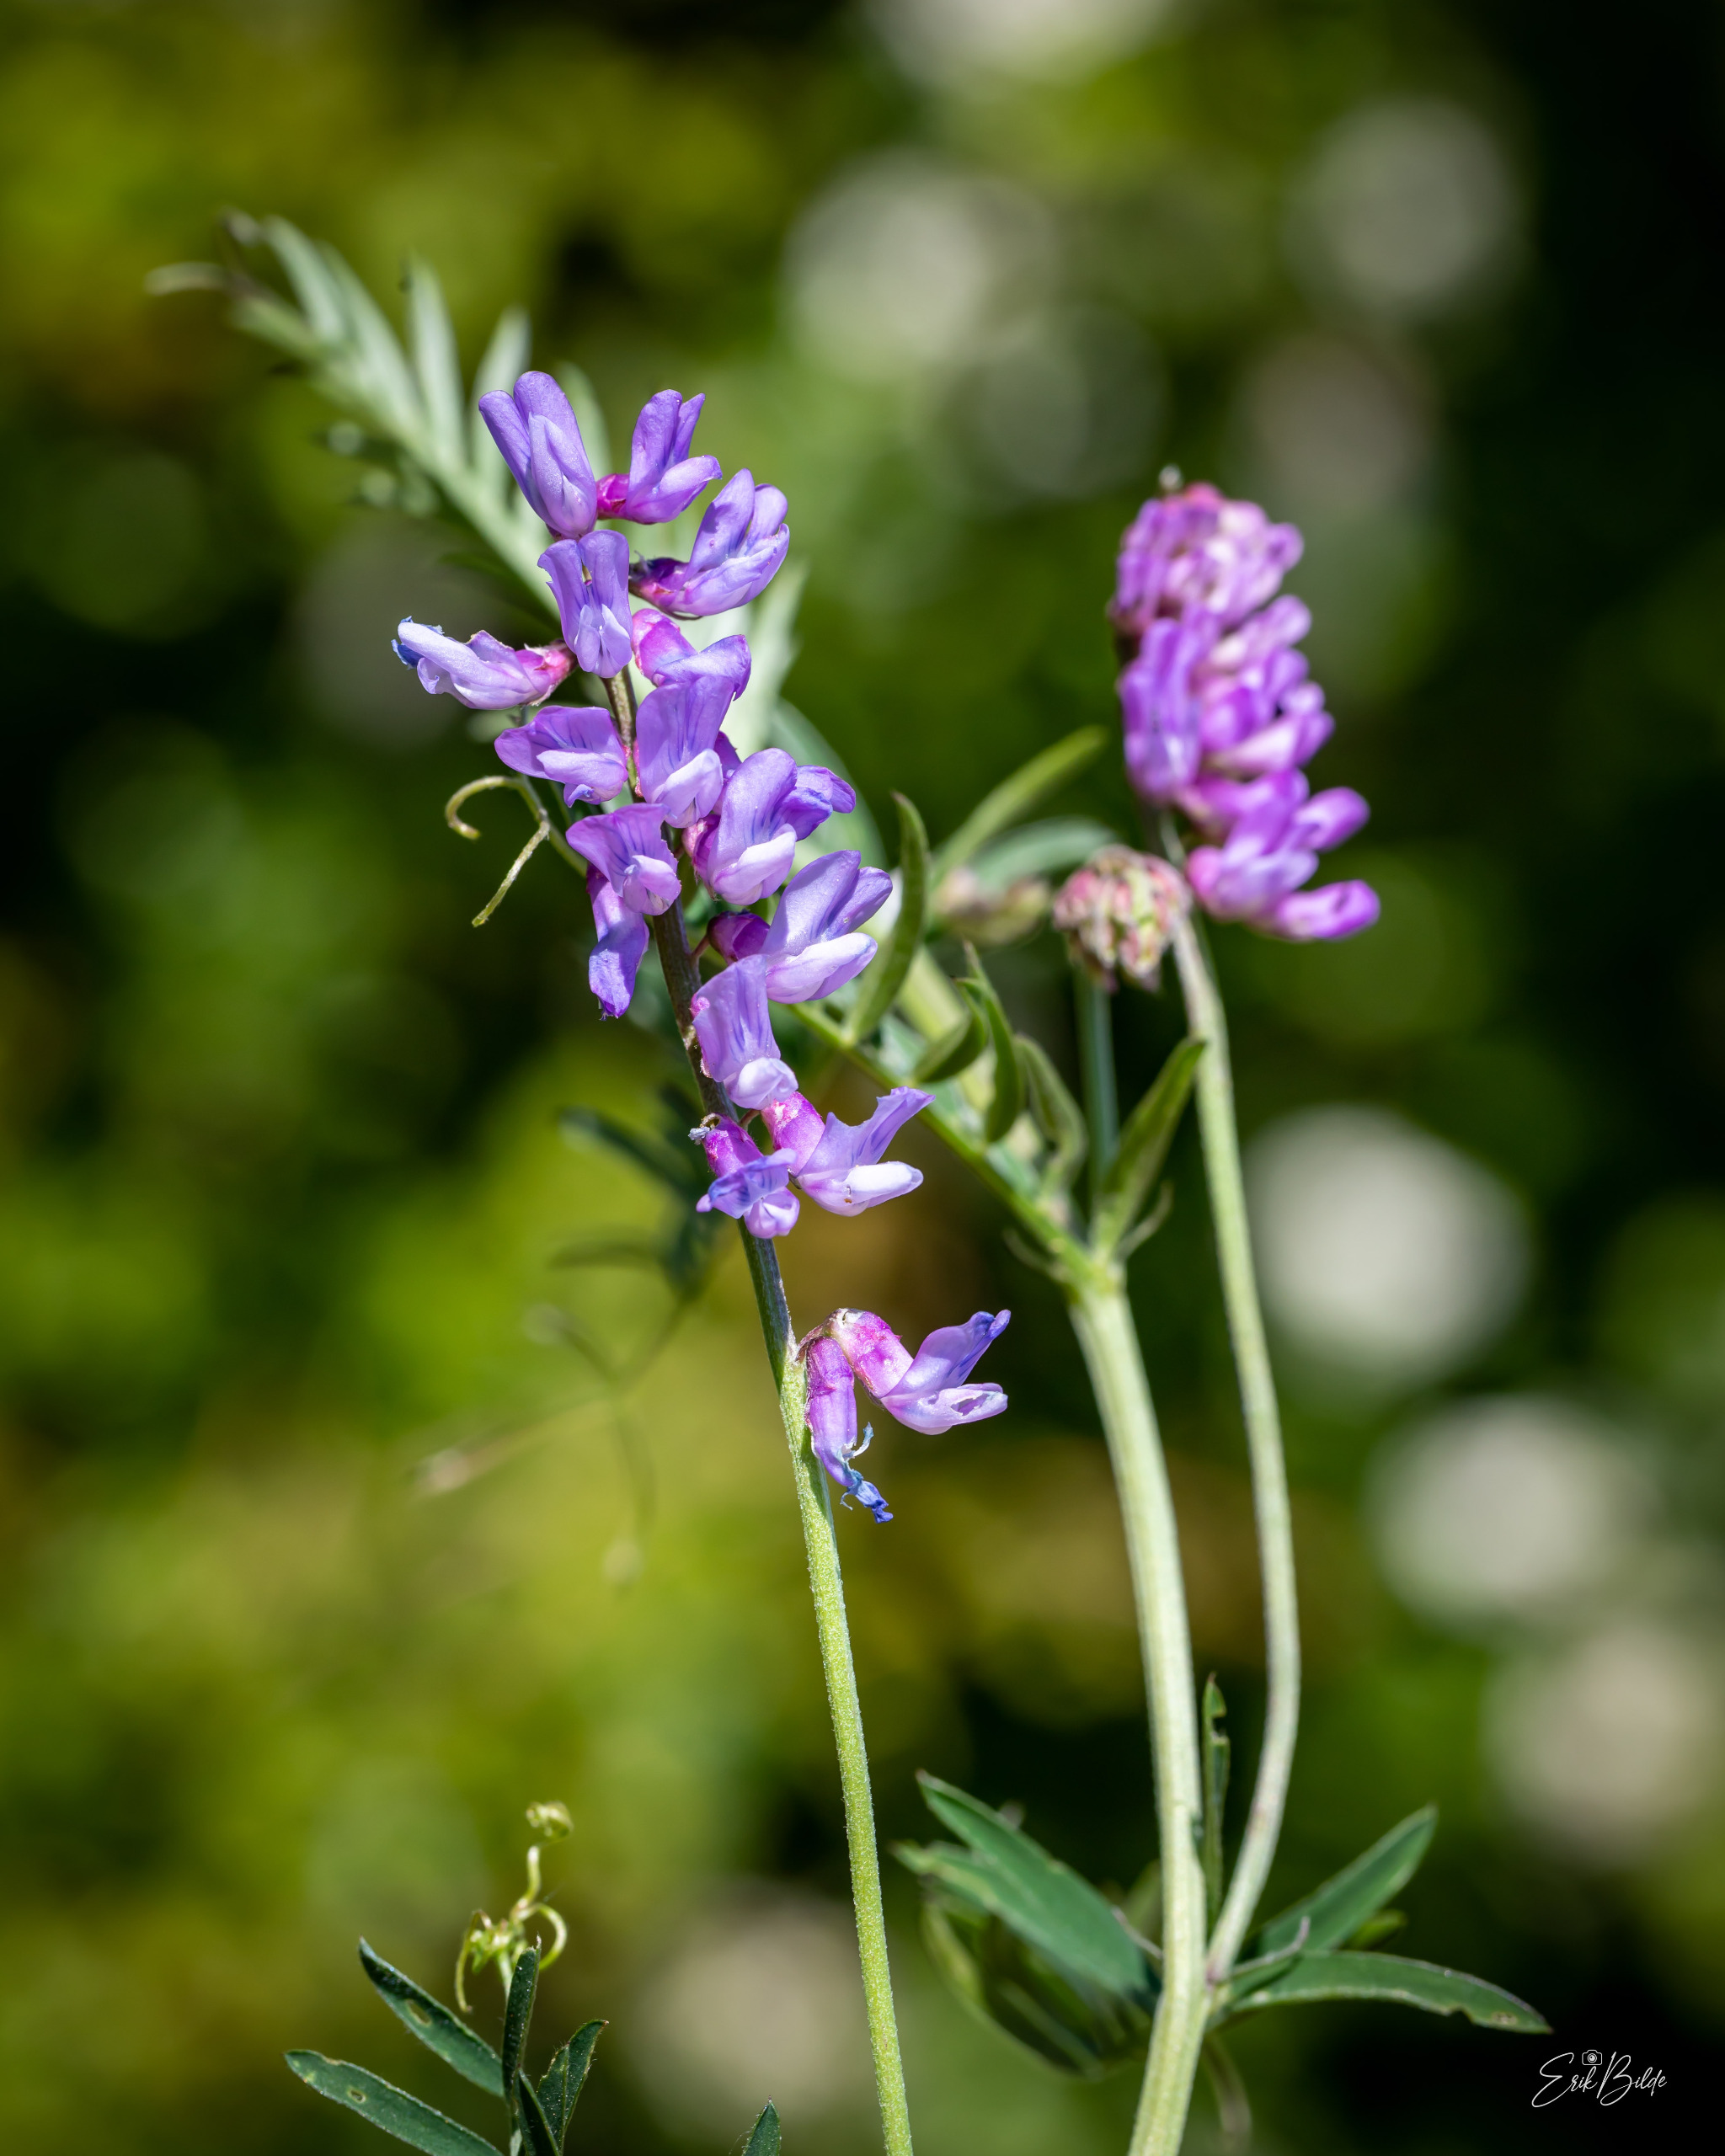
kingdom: Plantae
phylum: Tracheophyta
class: Magnoliopsida
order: Fabales
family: Fabaceae
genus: Vicia
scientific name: Vicia cracca
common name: Muse-vikke
